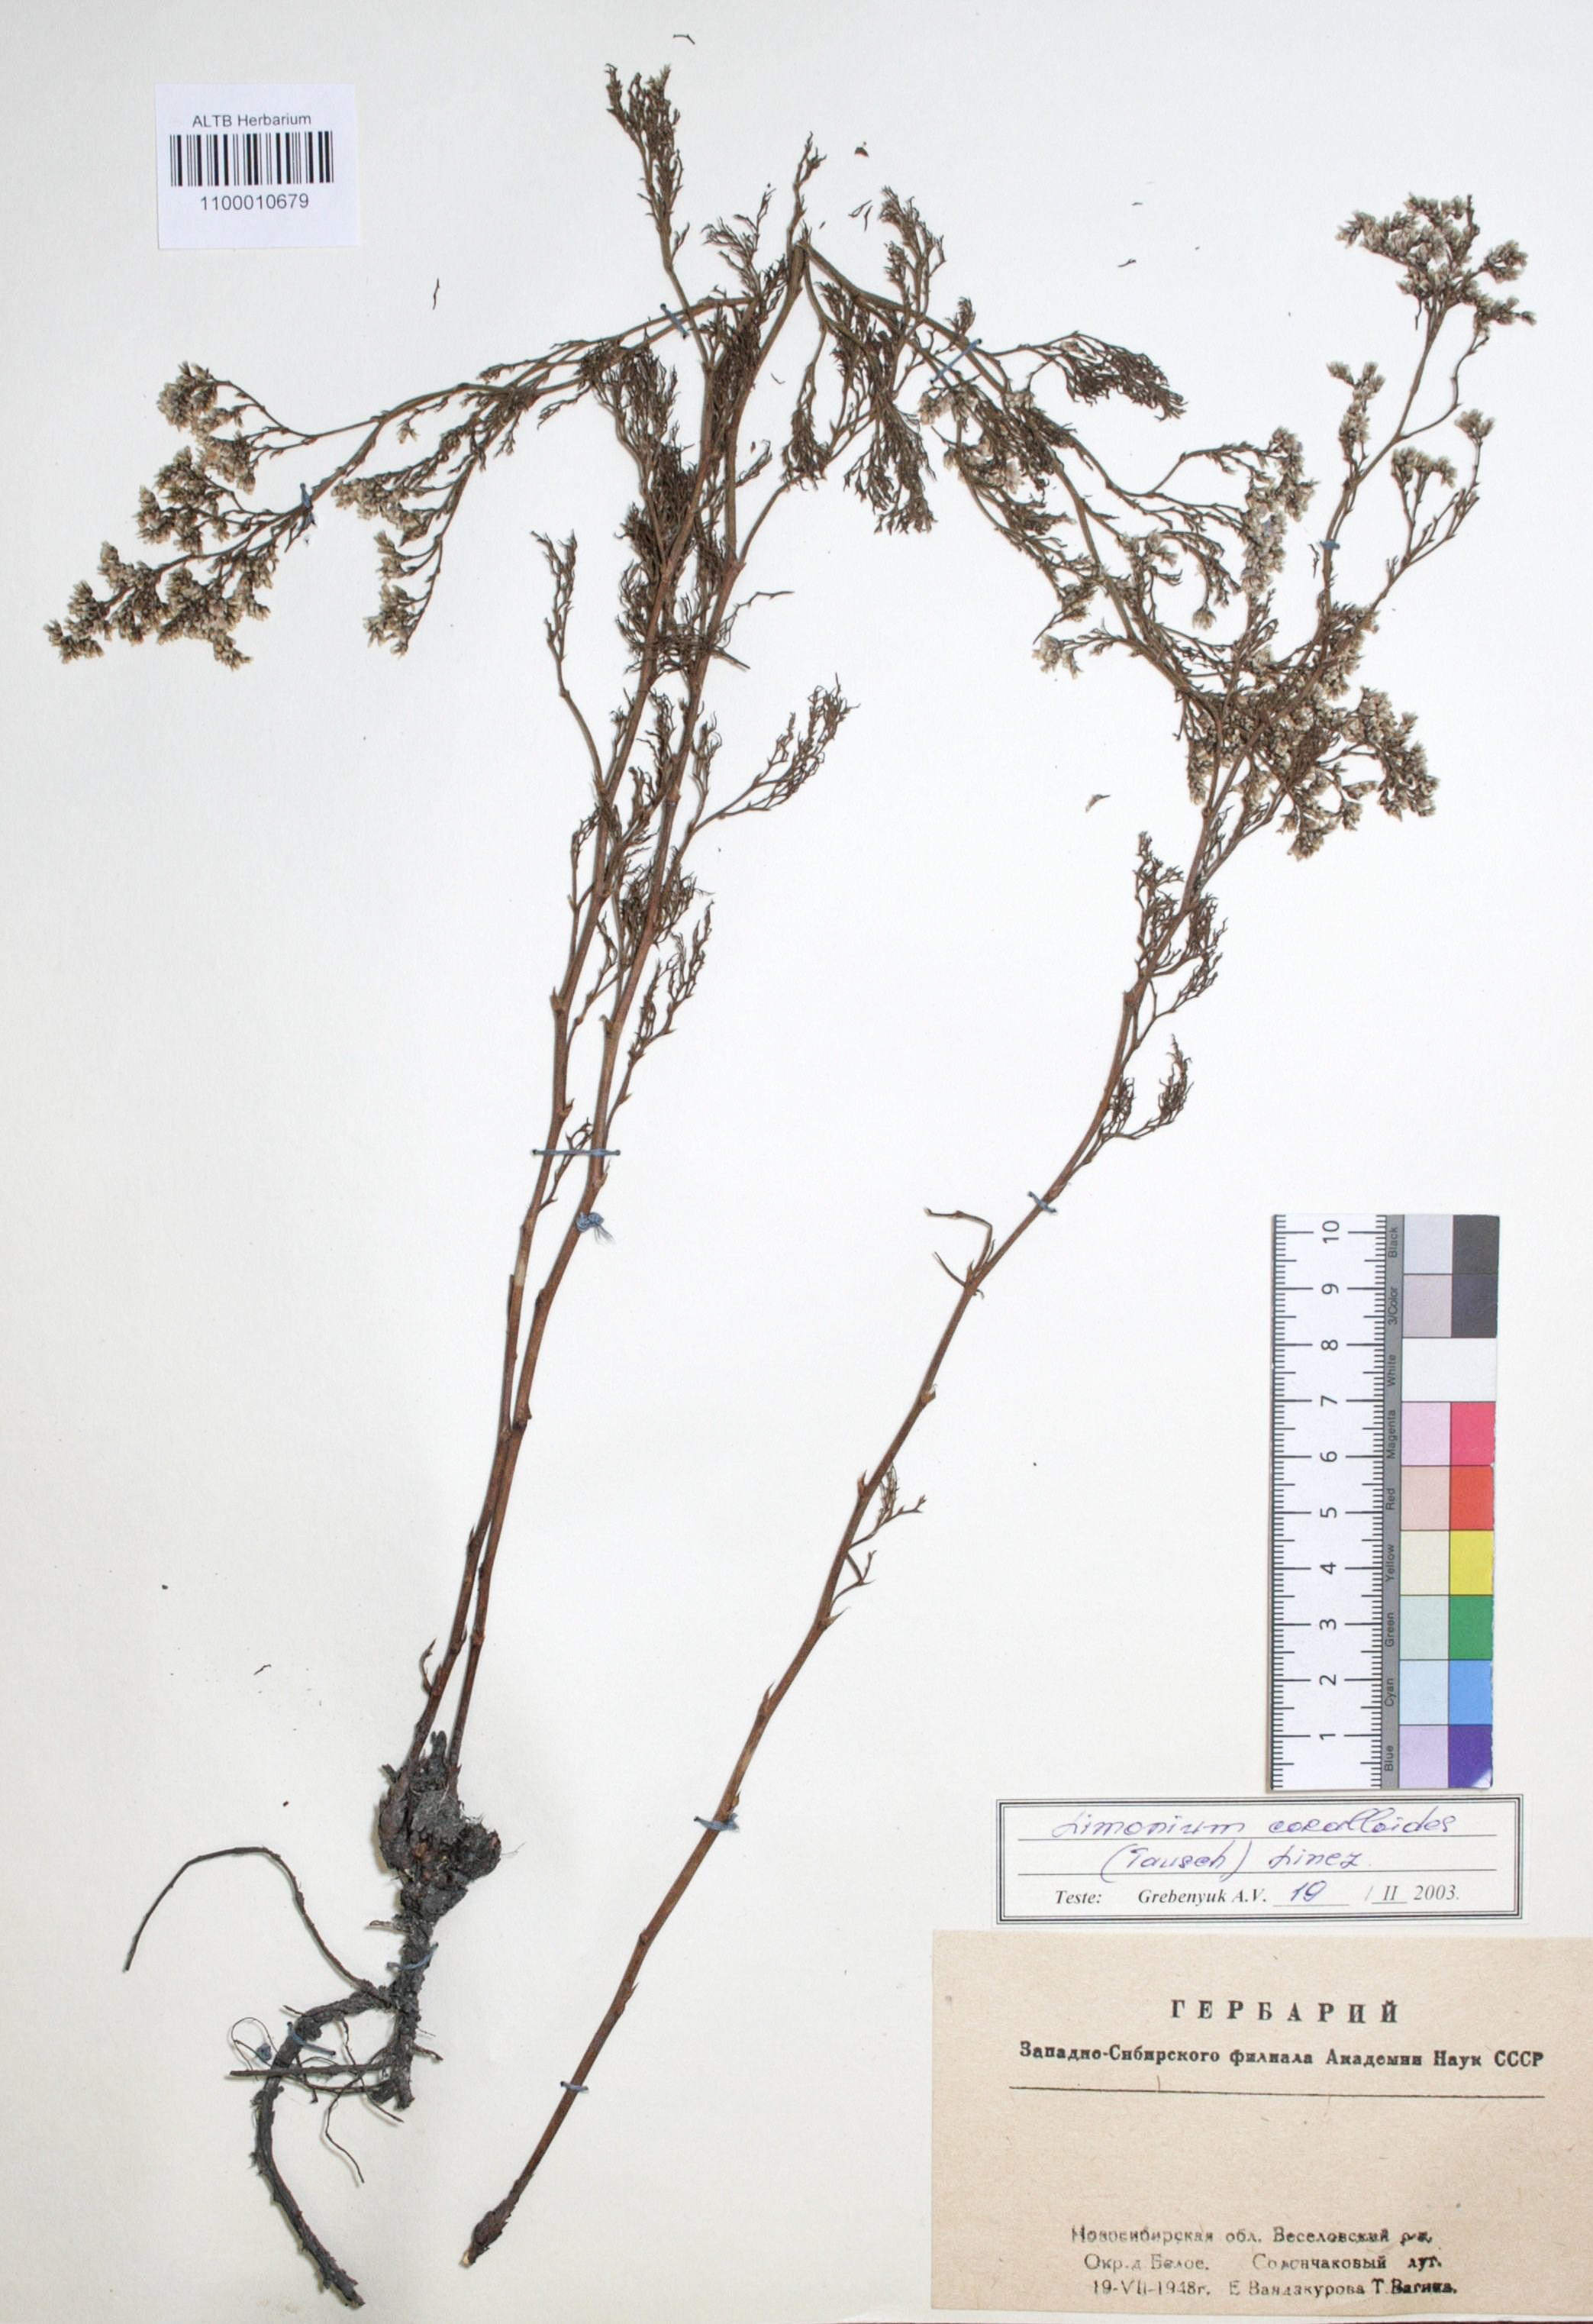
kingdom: Plantae
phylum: Tracheophyta
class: Magnoliopsida
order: Caryophyllales
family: Plumbaginaceae
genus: Limonium
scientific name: Limonium coralloides
